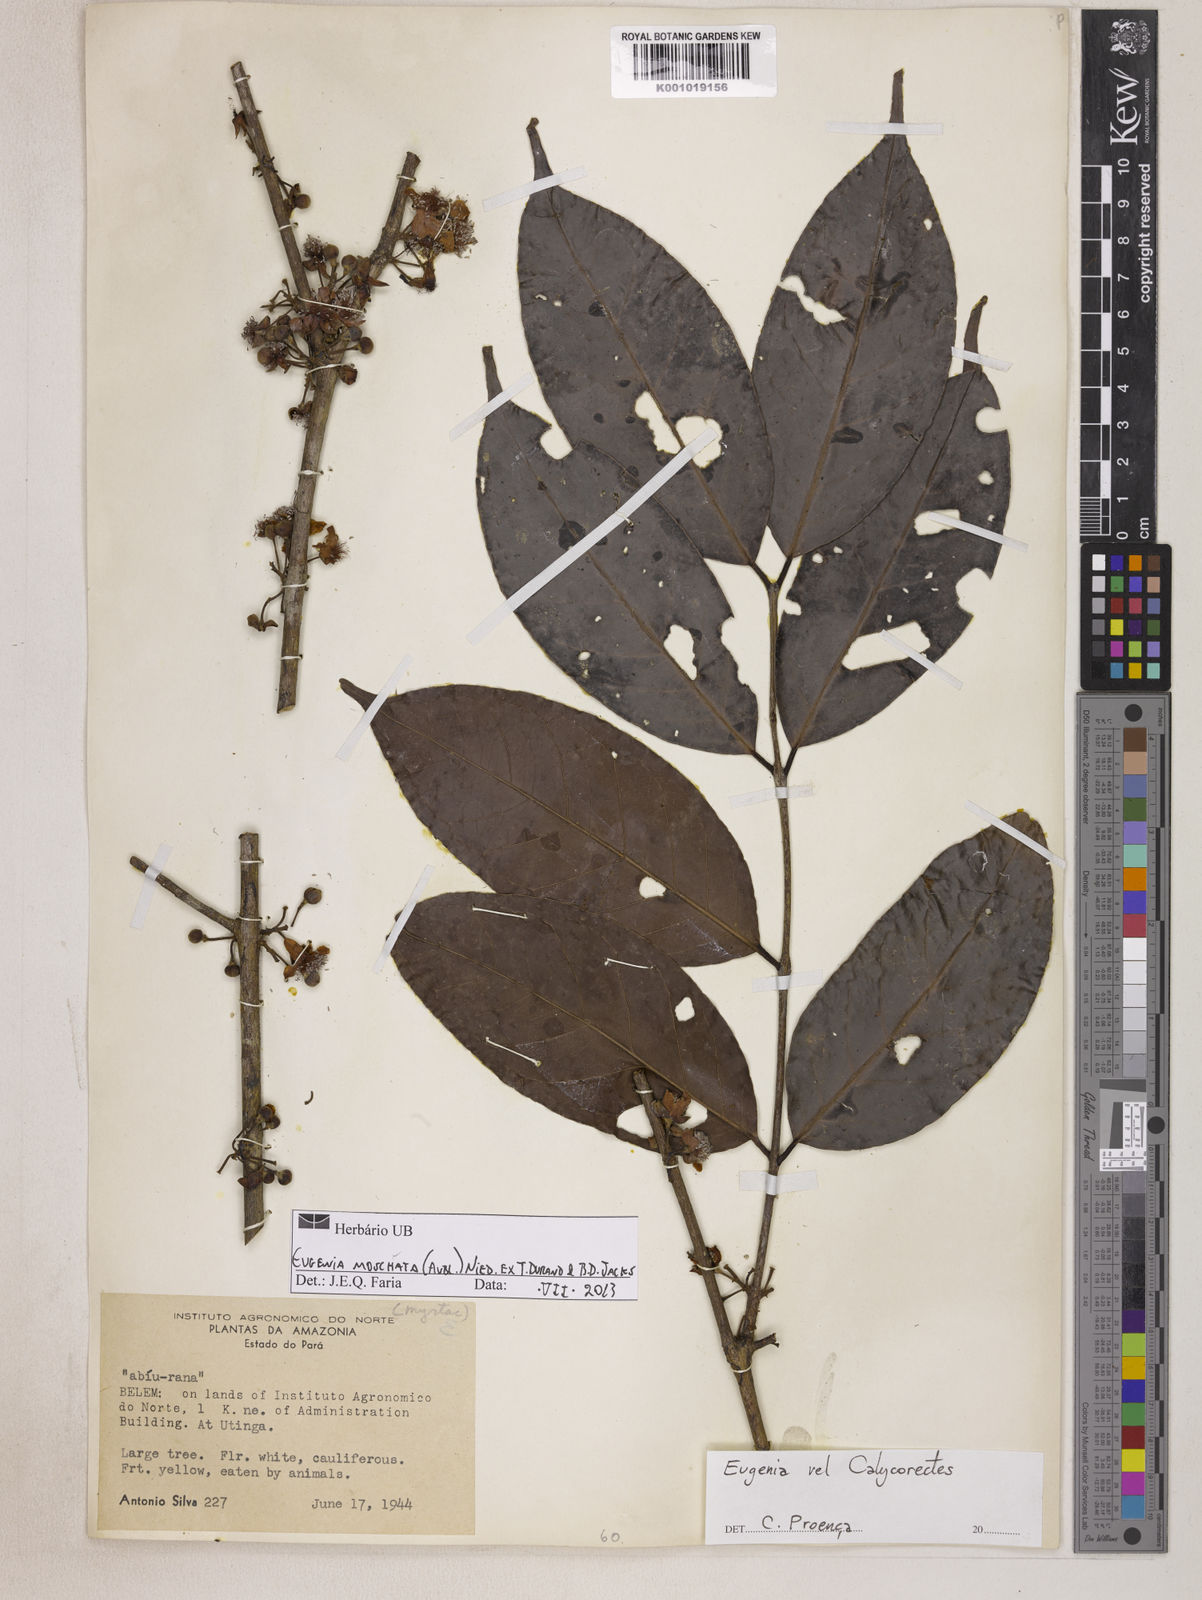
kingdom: Plantae
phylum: Tracheophyta
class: Magnoliopsida
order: Myrtales
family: Myrtaceae
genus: Eugenia
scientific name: Eugenia moschata
